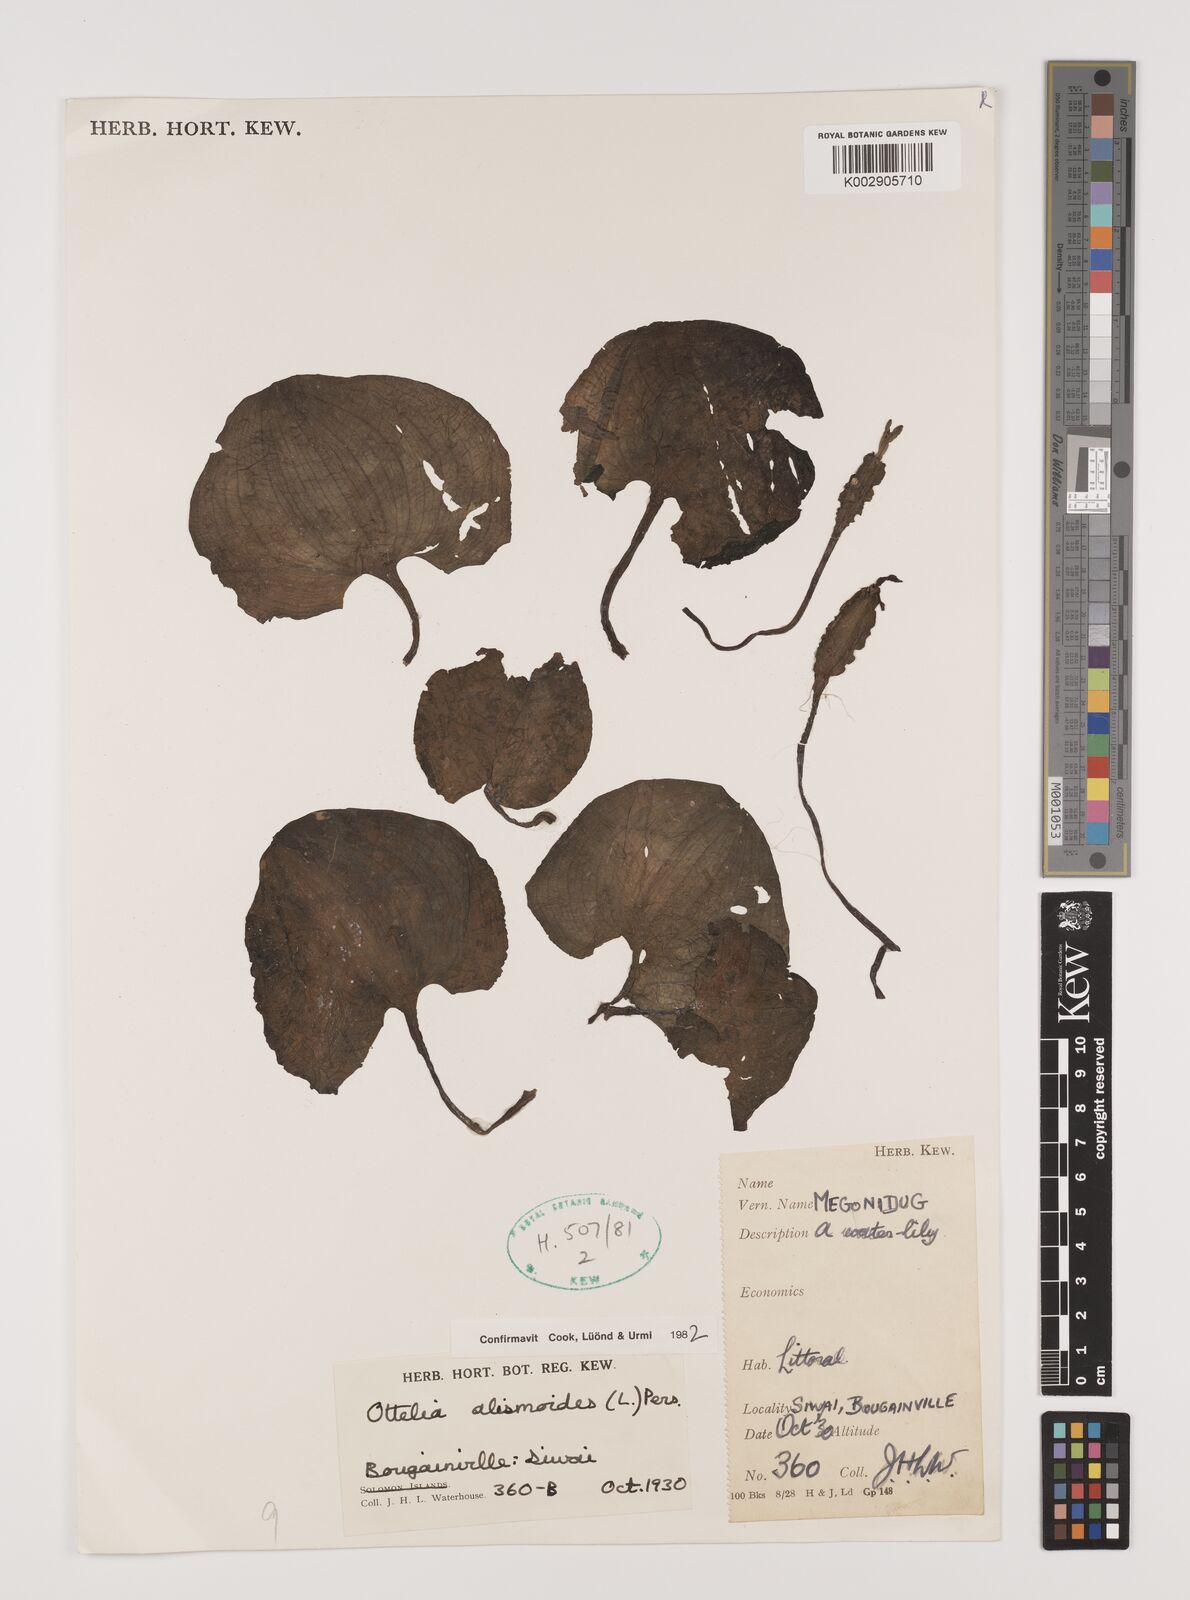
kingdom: Plantae
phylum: Tracheophyta
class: Liliopsida
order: Alismatales
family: Hydrocharitaceae
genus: Ottelia
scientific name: Ottelia alismoides
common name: Duck-lettuce
